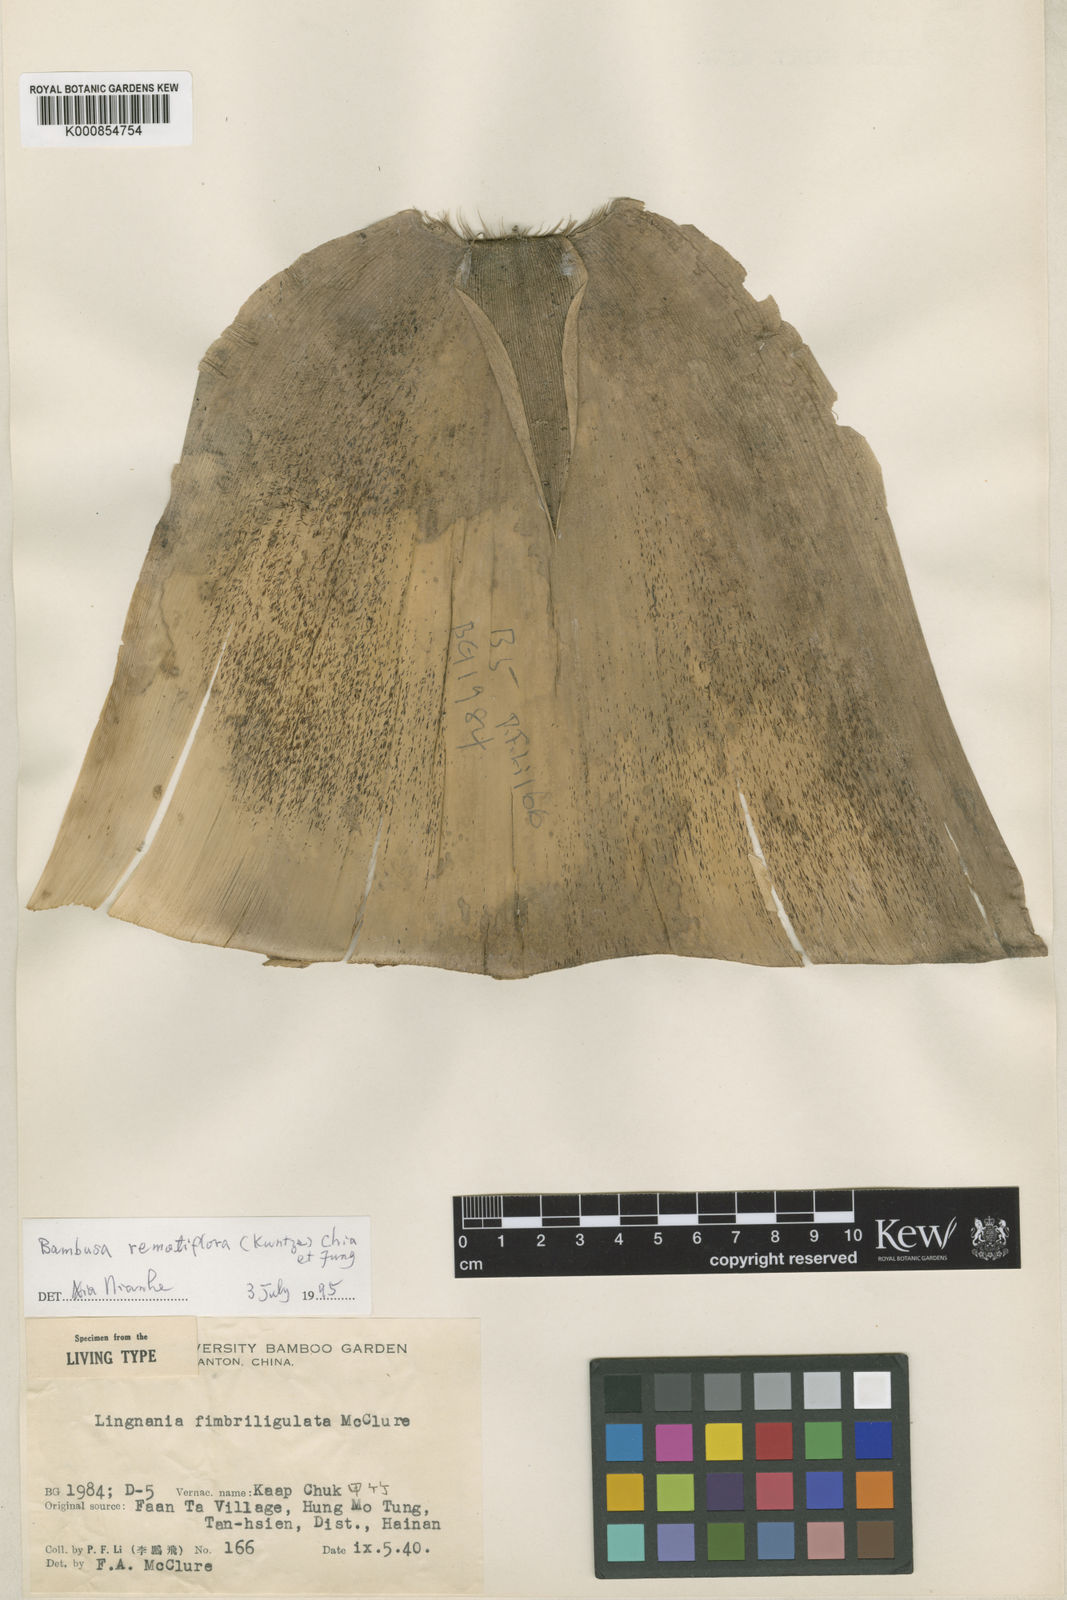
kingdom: Plantae
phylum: Tracheophyta
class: Liliopsida
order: Poales
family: Poaceae
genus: Bambusa
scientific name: Bambusa remotiflora
